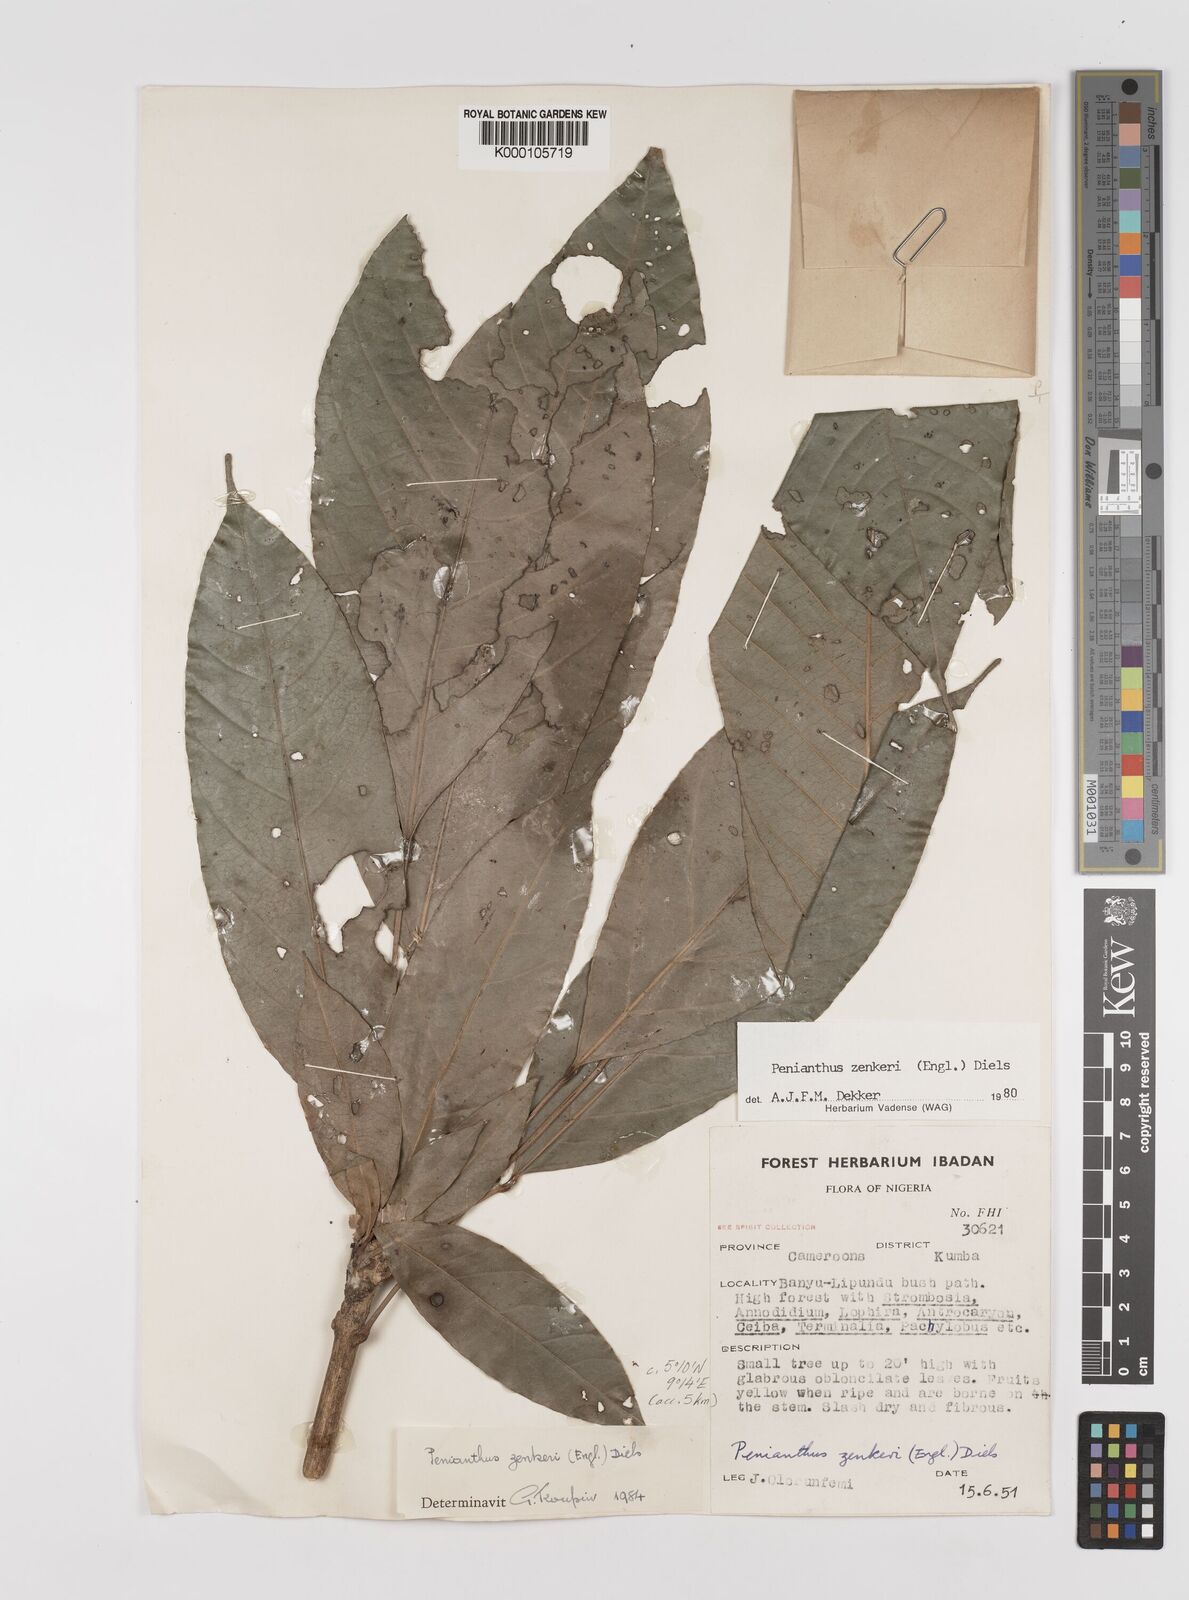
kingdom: Plantae
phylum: Tracheophyta
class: Magnoliopsida
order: Ranunculales
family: Menispermaceae
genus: Penianthus
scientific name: Penianthus zenkeri
